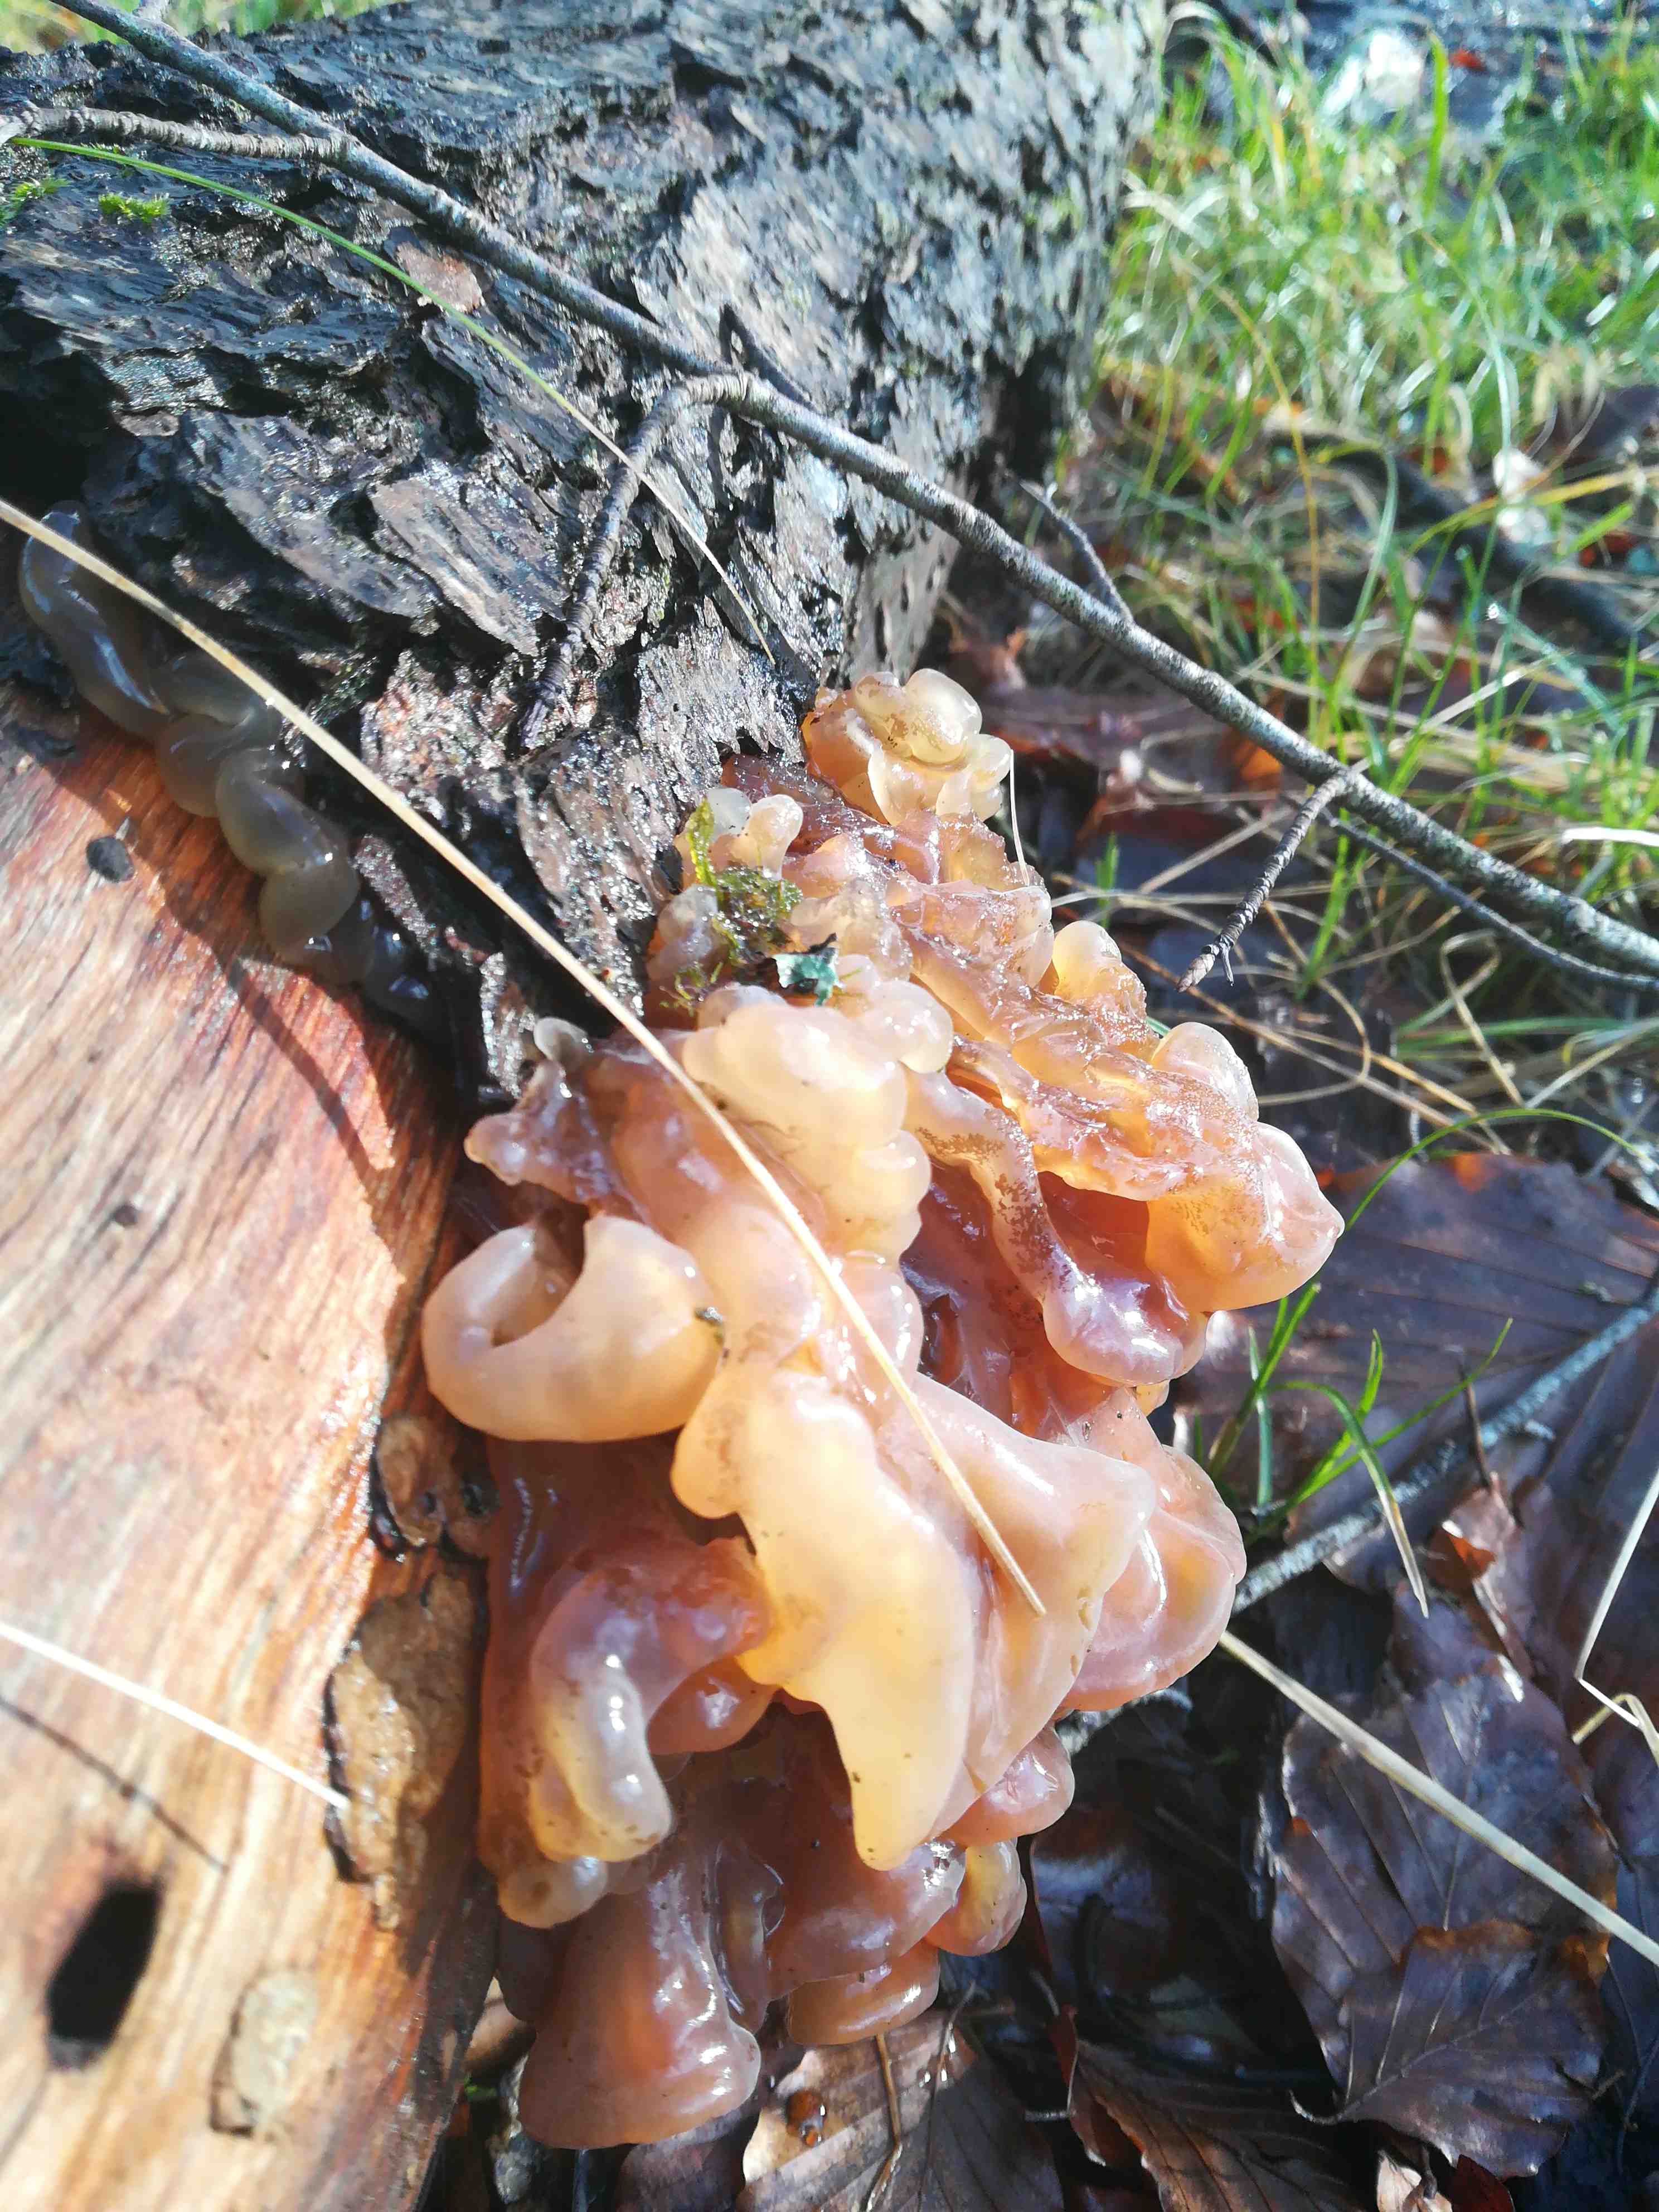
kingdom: Fungi
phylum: Basidiomycota
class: Tremellomycetes
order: Tremellales
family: Tremellaceae
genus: Phaeotremella
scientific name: Phaeotremella frondosa
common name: kæmpe-bævresvamp
